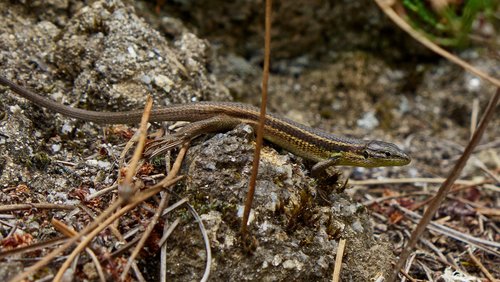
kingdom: Animalia
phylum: Chordata
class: Squamata
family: Lacertidae
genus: Psammodromus
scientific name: Psammodromus algirus
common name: Algerian psammodromus
